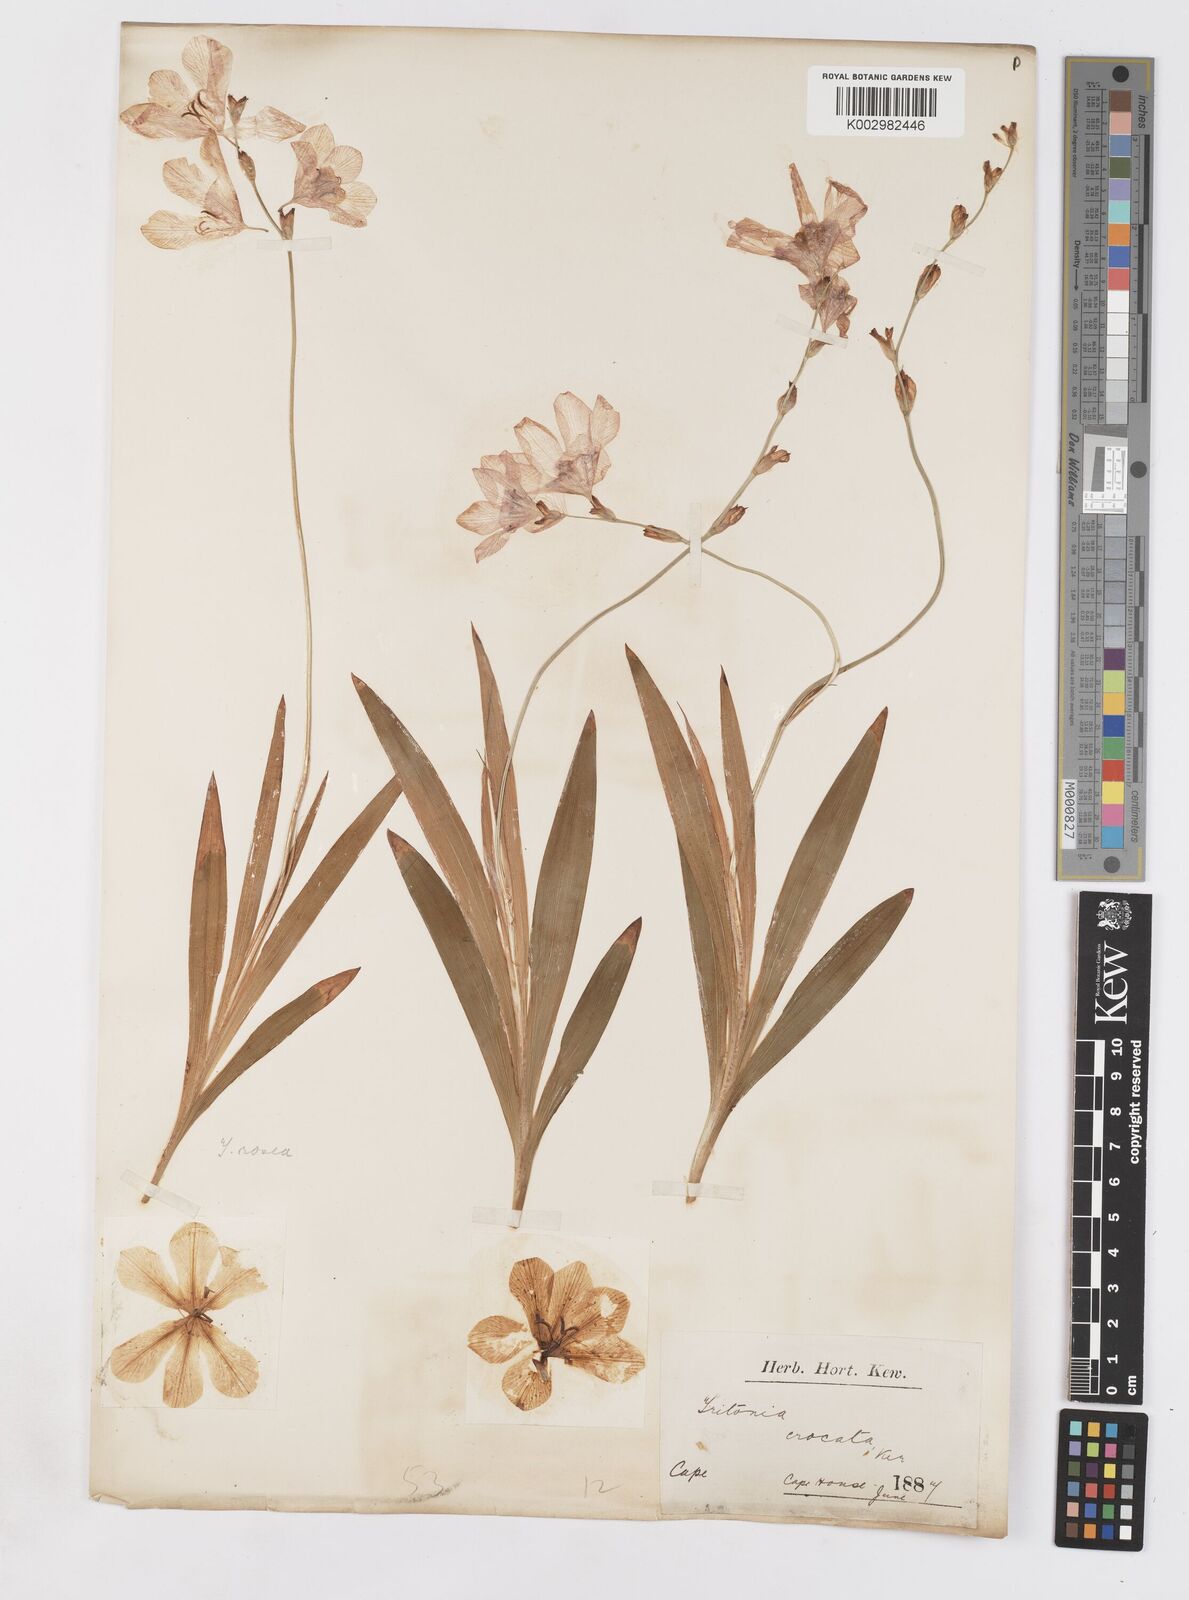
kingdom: Plantae
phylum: Tracheophyta
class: Liliopsida
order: Asparagales
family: Iridaceae
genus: Tritonia
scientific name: Tritonia crocata
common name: Flame-freesia
